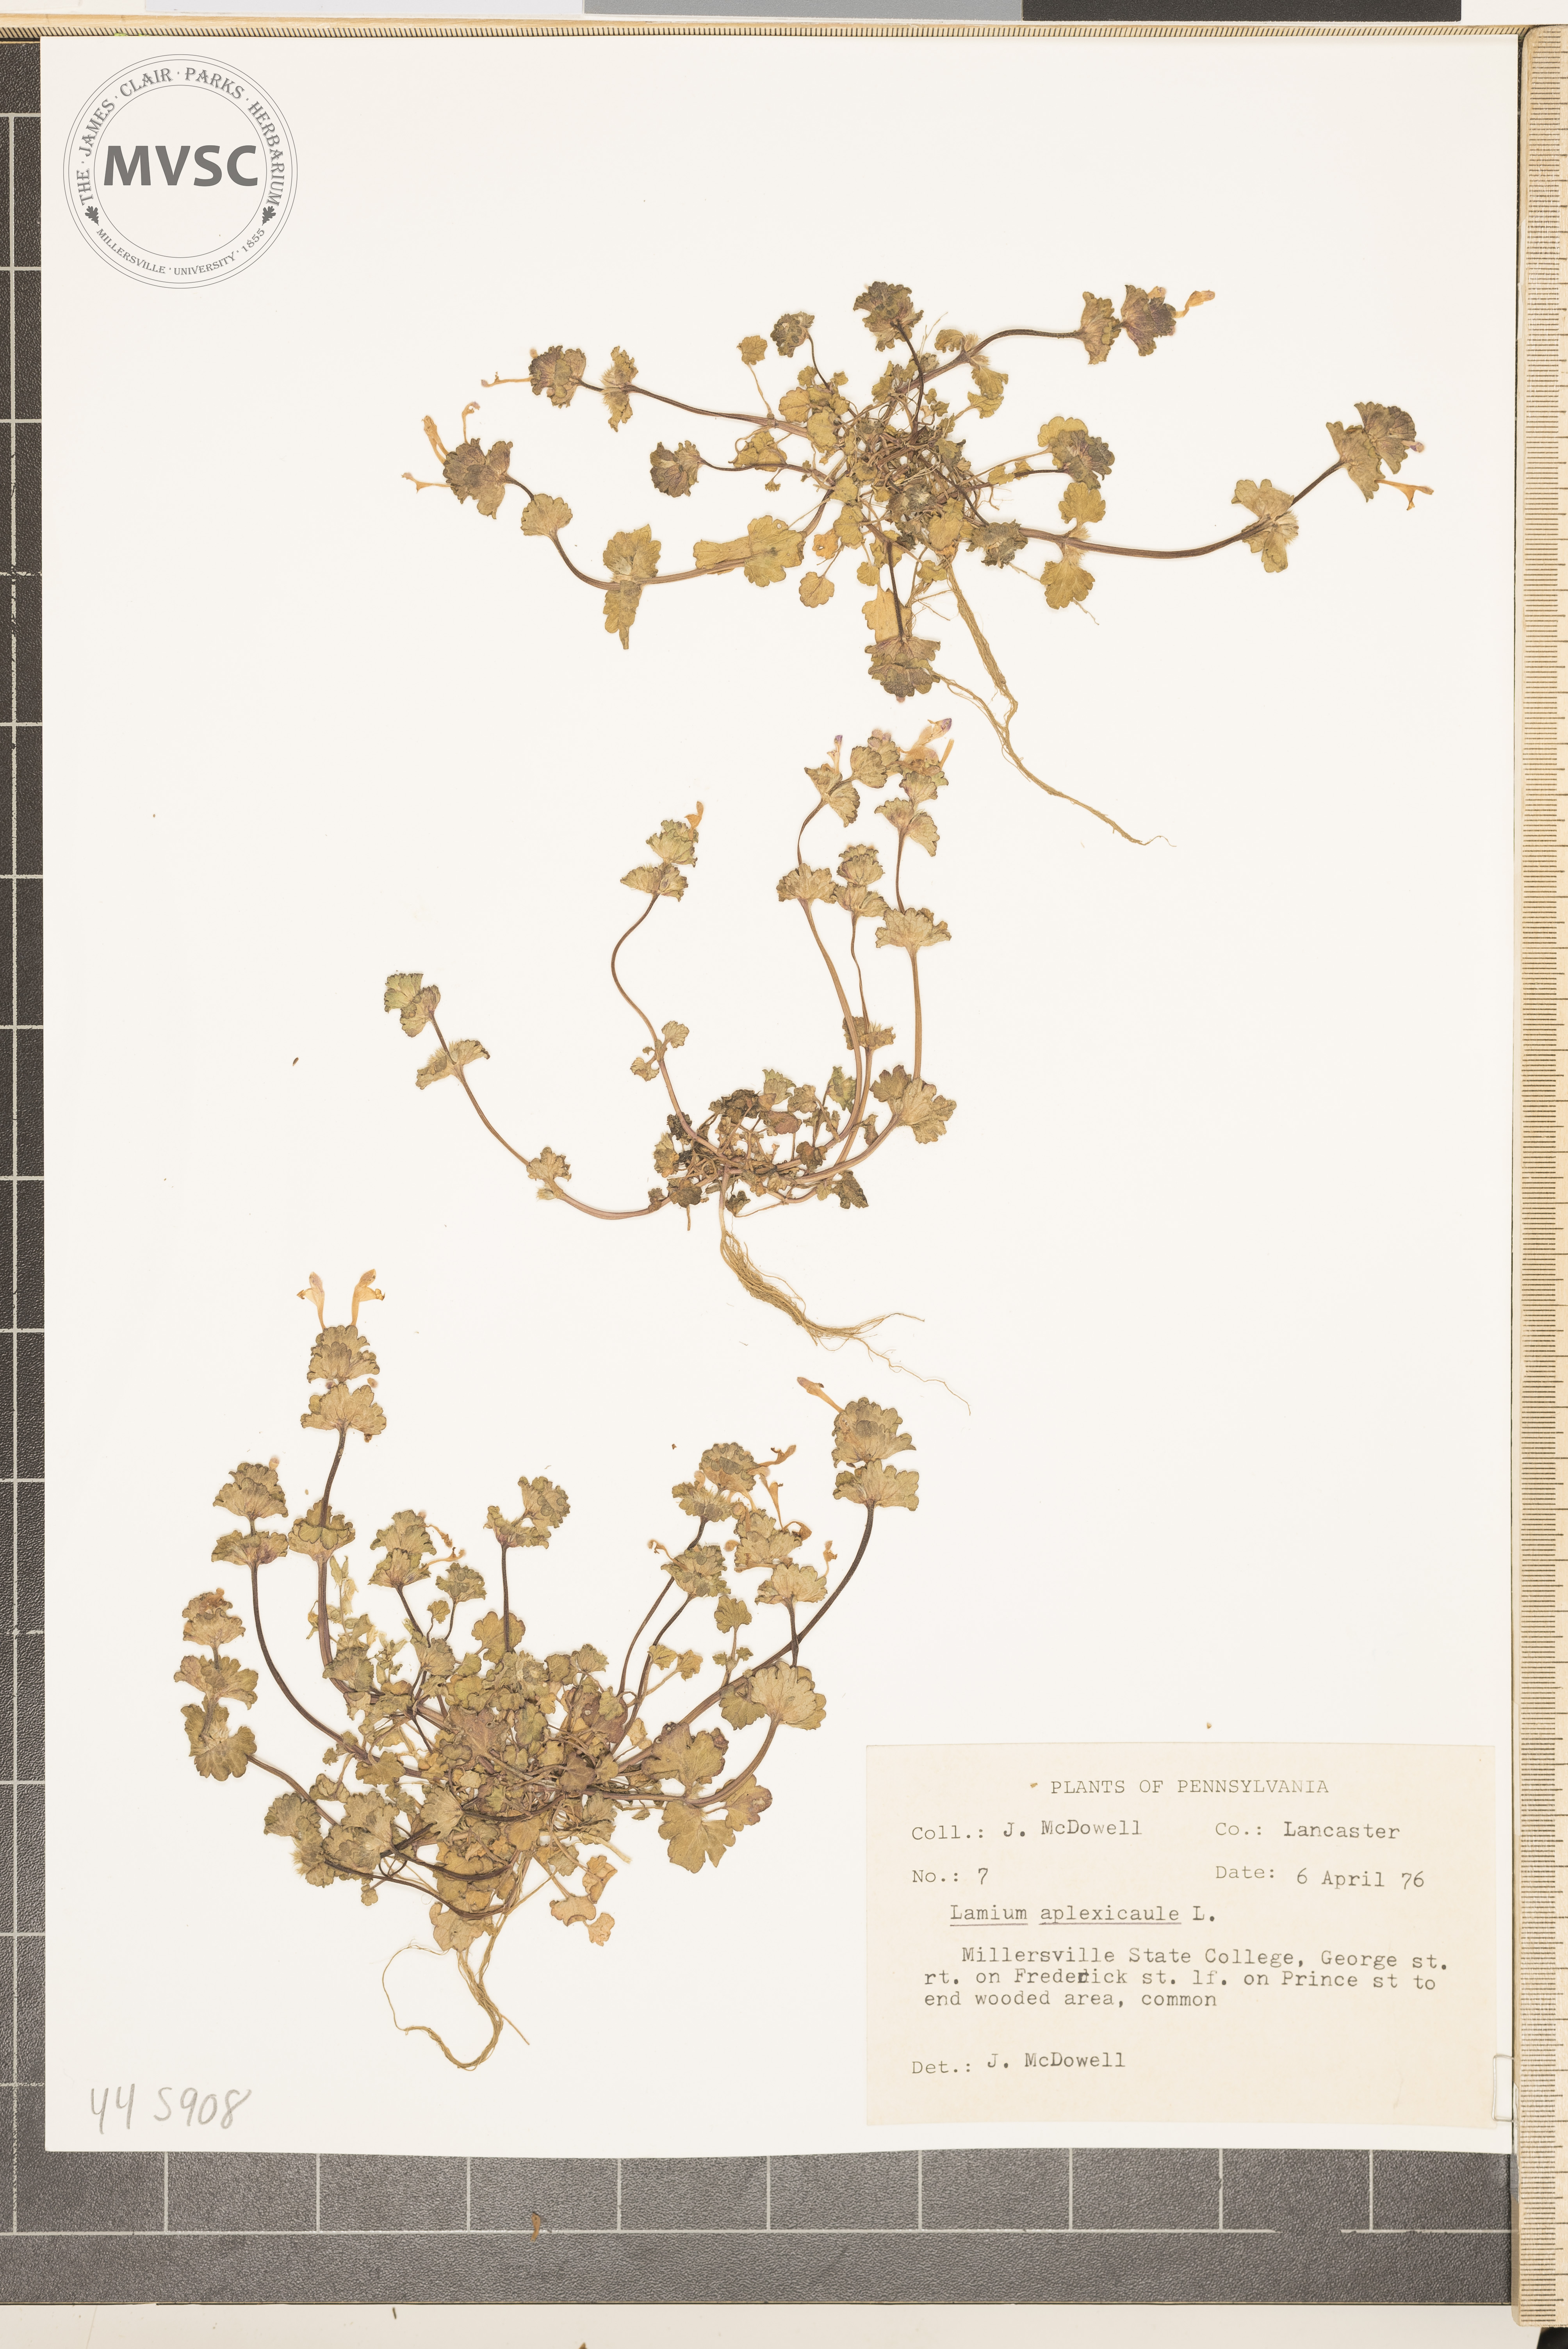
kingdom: Plantae
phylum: Tracheophyta
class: Magnoliopsida
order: Lamiales
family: Lamiaceae
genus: Lamium
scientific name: Lamium amplexicaule
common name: Henbit dead-nettle
